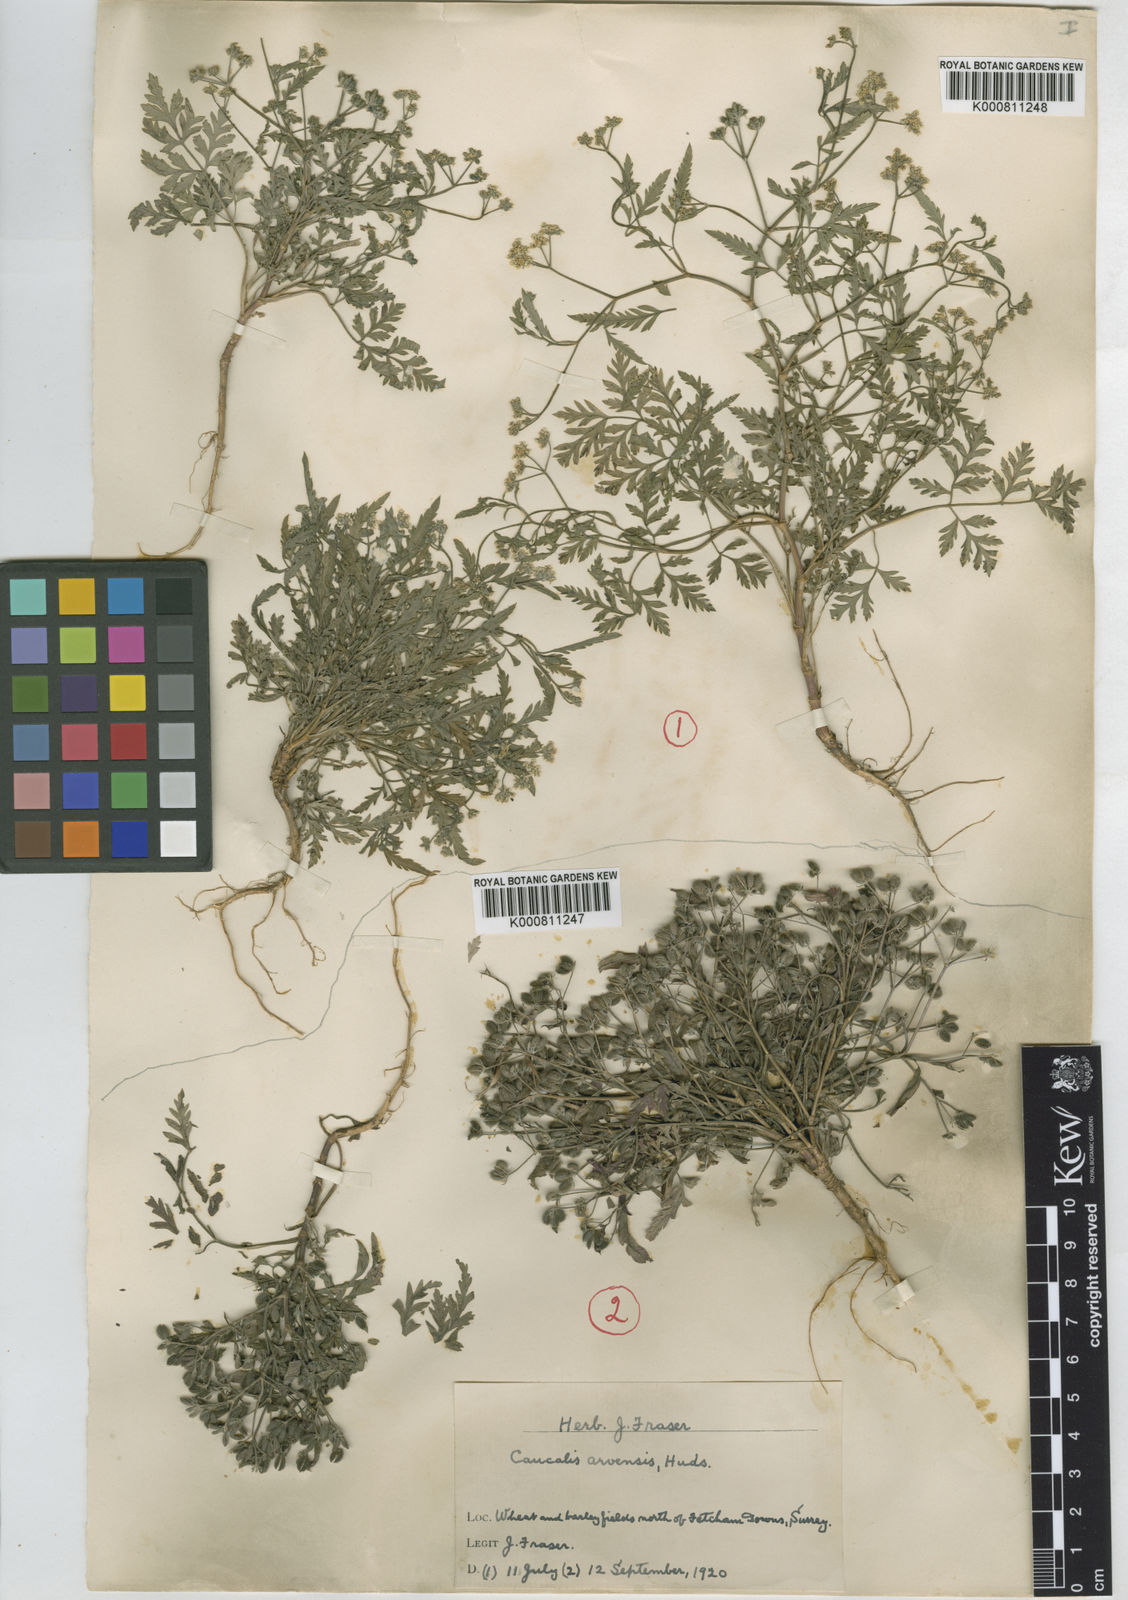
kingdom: Plantae
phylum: Tracheophyta
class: Magnoliopsida
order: Apiales
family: Apiaceae
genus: Torilis
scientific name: Torilis arvensis
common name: Spreading hedge-parsley
